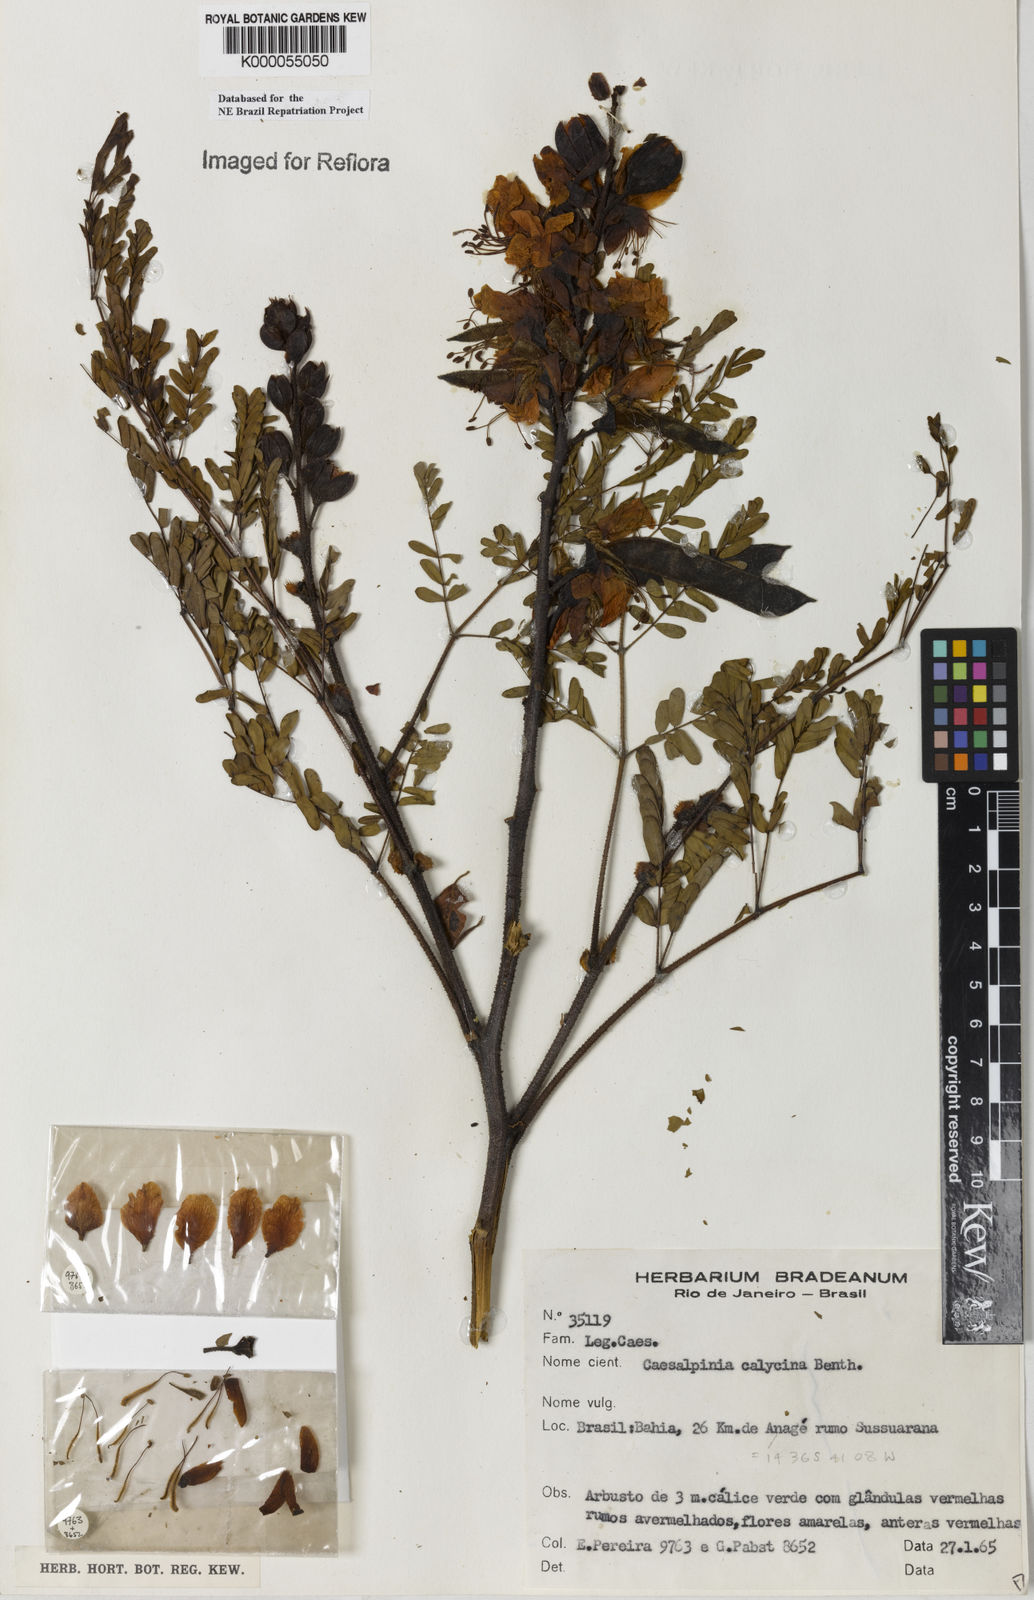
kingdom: Plantae
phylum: Tracheophyta
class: Magnoliopsida
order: Fabales
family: Fabaceae
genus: Erythrostemon
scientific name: Erythrostemon calycinus
